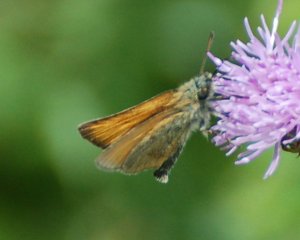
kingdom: Animalia
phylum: Arthropoda
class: Insecta
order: Lepidoptera
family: Hesperiidae
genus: Thymelicus
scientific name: Thymelicus lineola
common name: European Skipper
